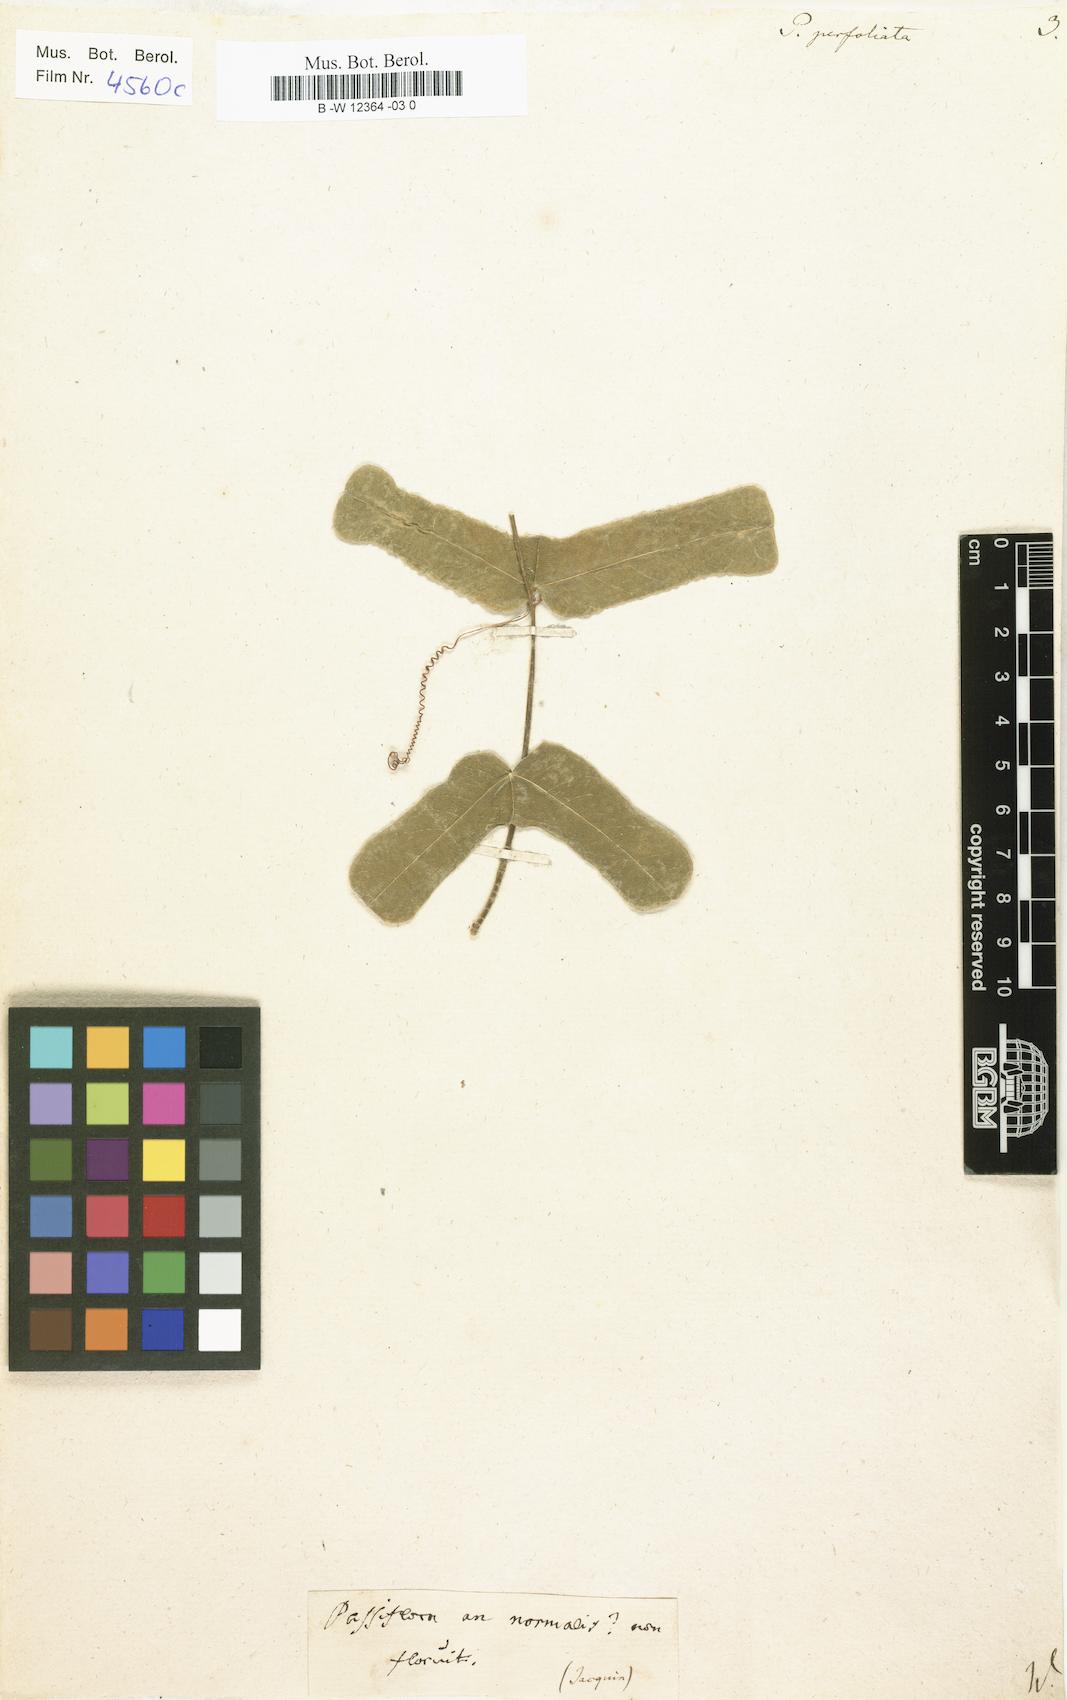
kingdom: Plantae
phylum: Tracheophyta
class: Magnoliopsida
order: Malpighiales
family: Passifloraceae
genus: Passiflora
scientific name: Passiflora perfoliata
